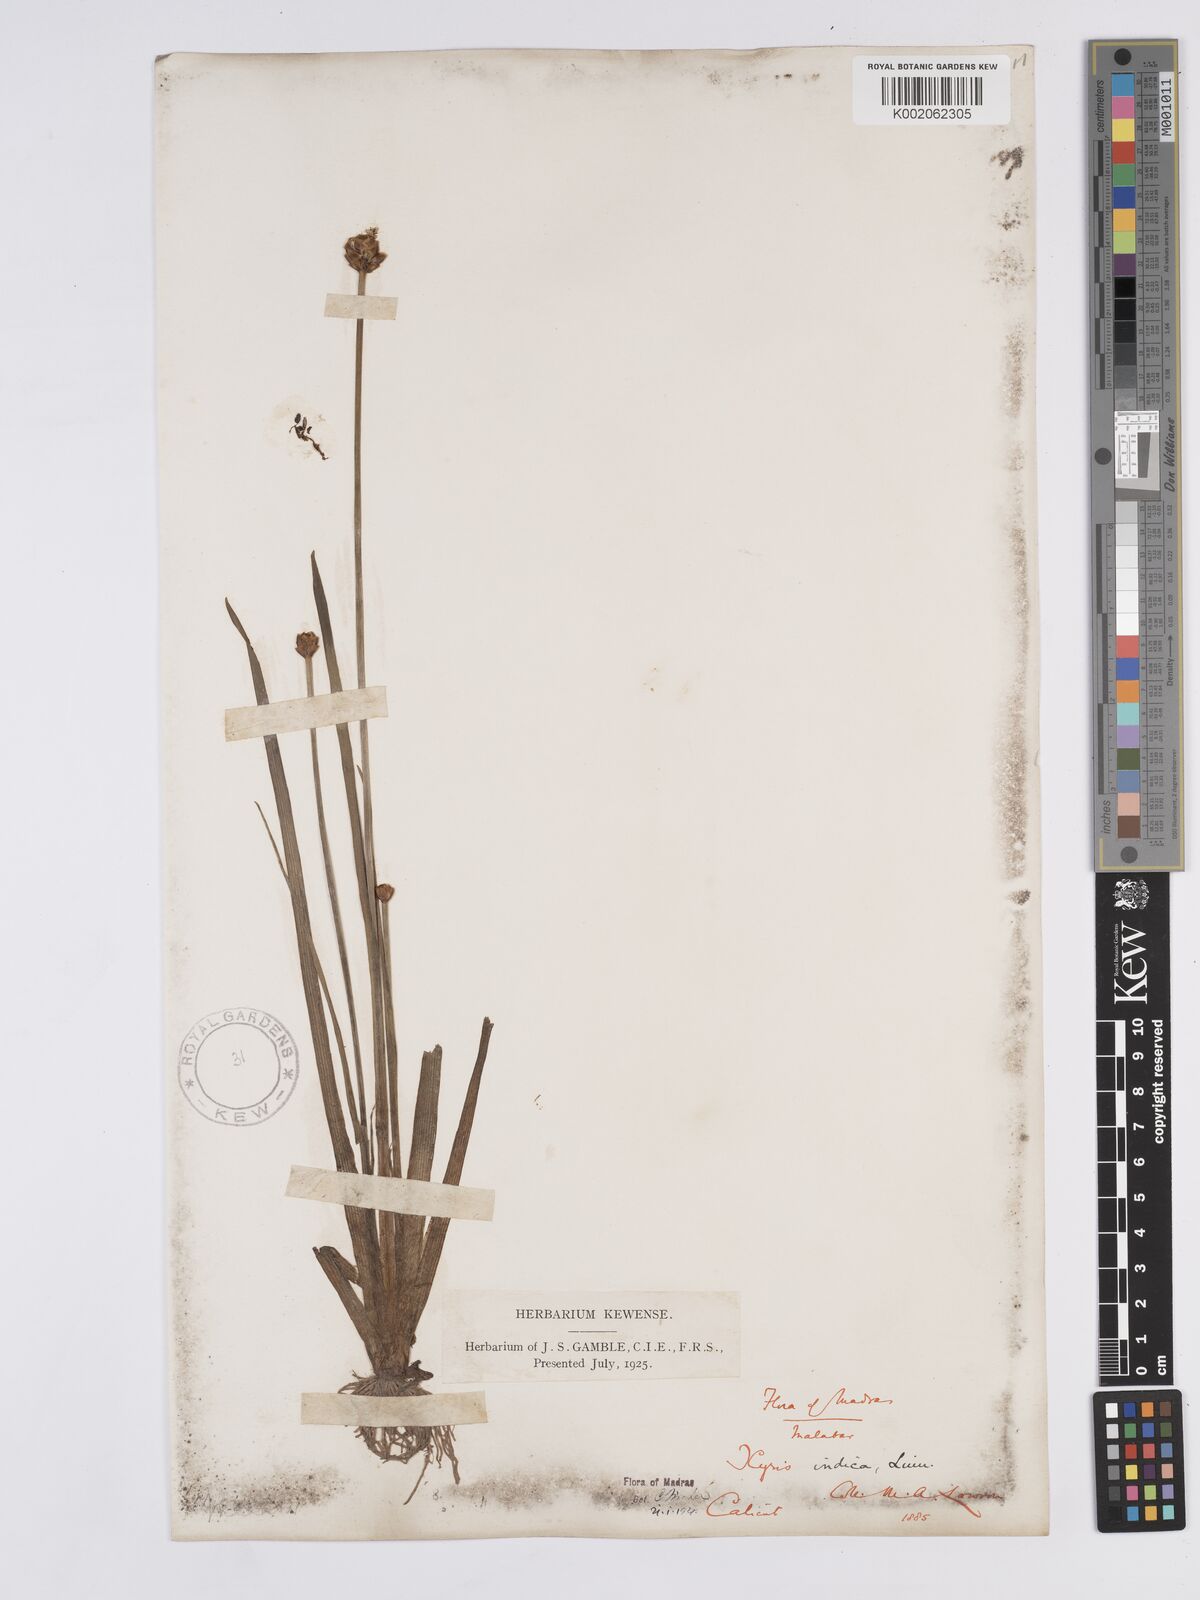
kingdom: Plantae
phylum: Tracheophyta
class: Liliopsida
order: Poales
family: Xyridaceae
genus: Xyris
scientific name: Xyris indica
